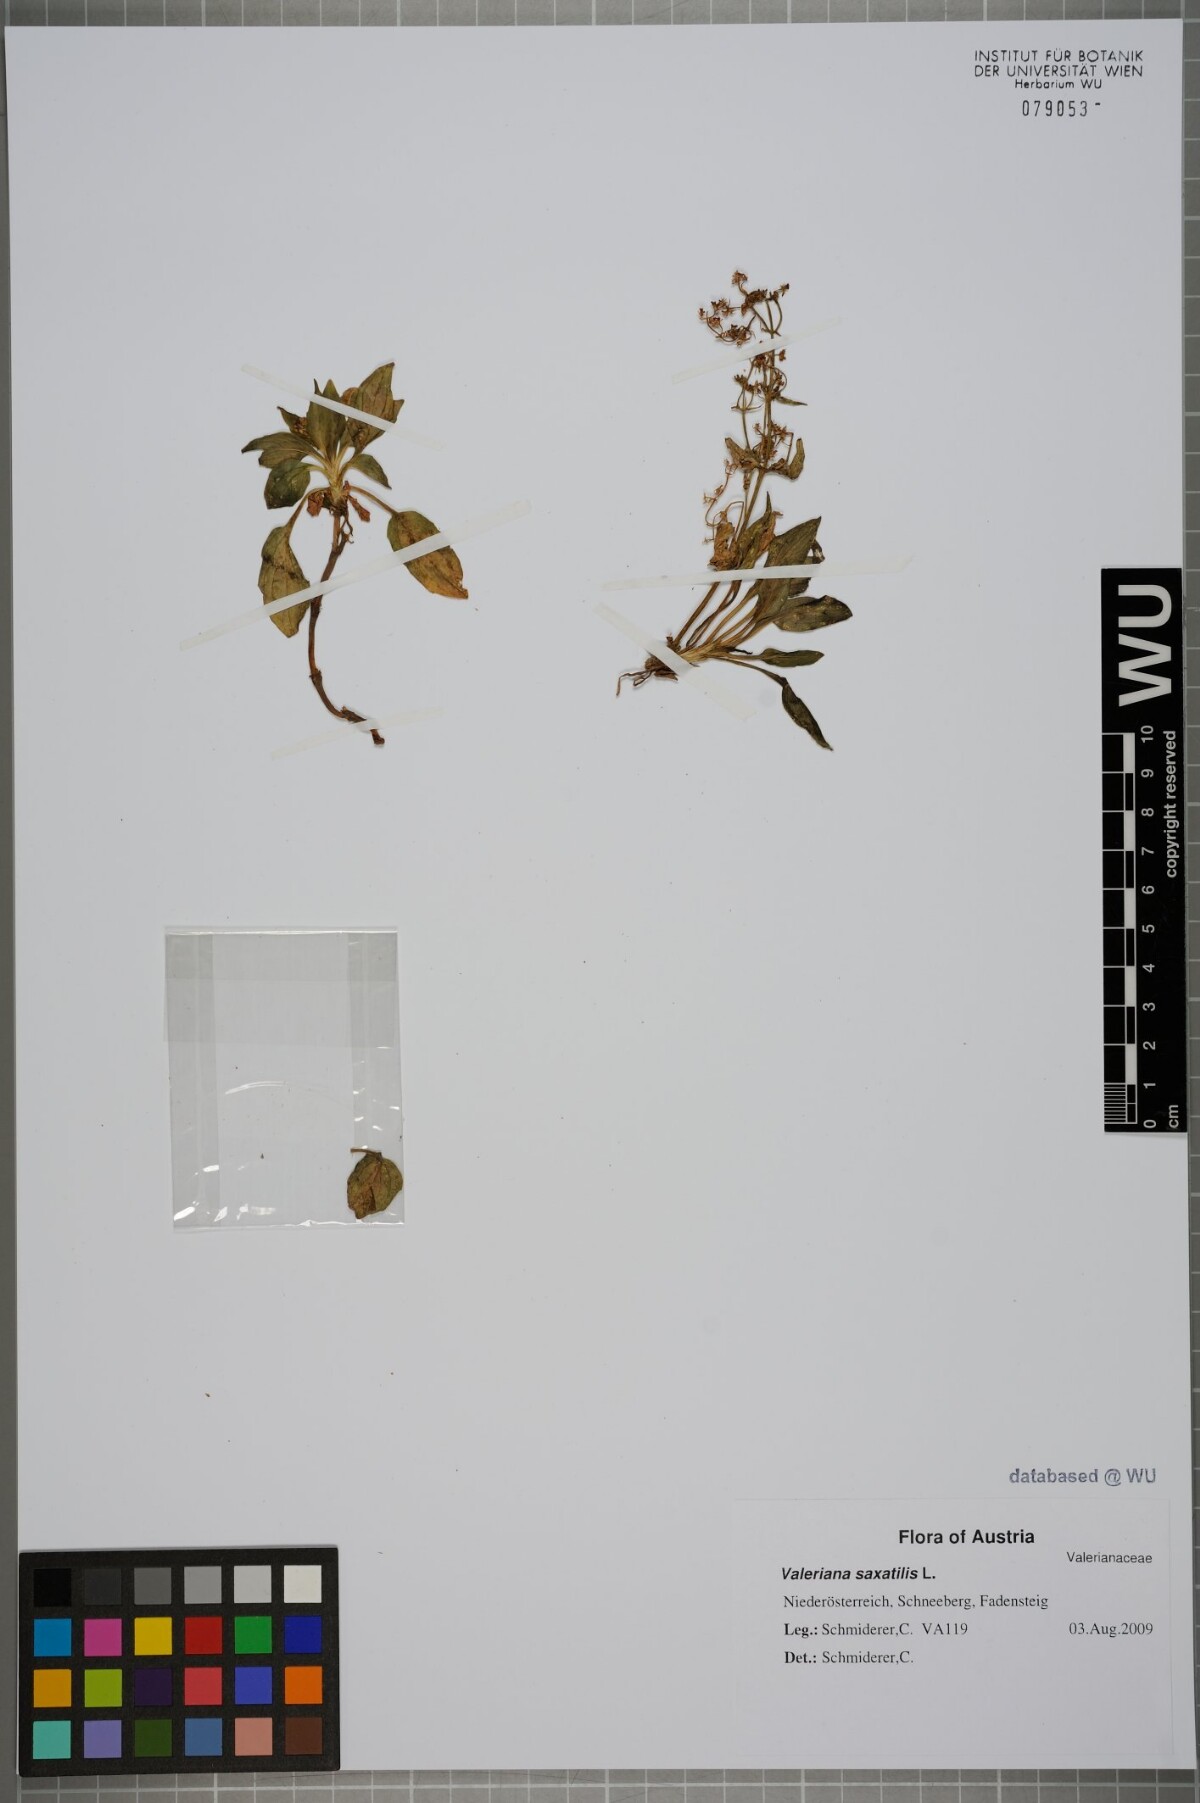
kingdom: Plantae
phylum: Tracheophyta
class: Magnoliopsida
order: Dipsacales
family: Caprifoliaceae
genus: Valeriana
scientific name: Valeriana saxatilis
